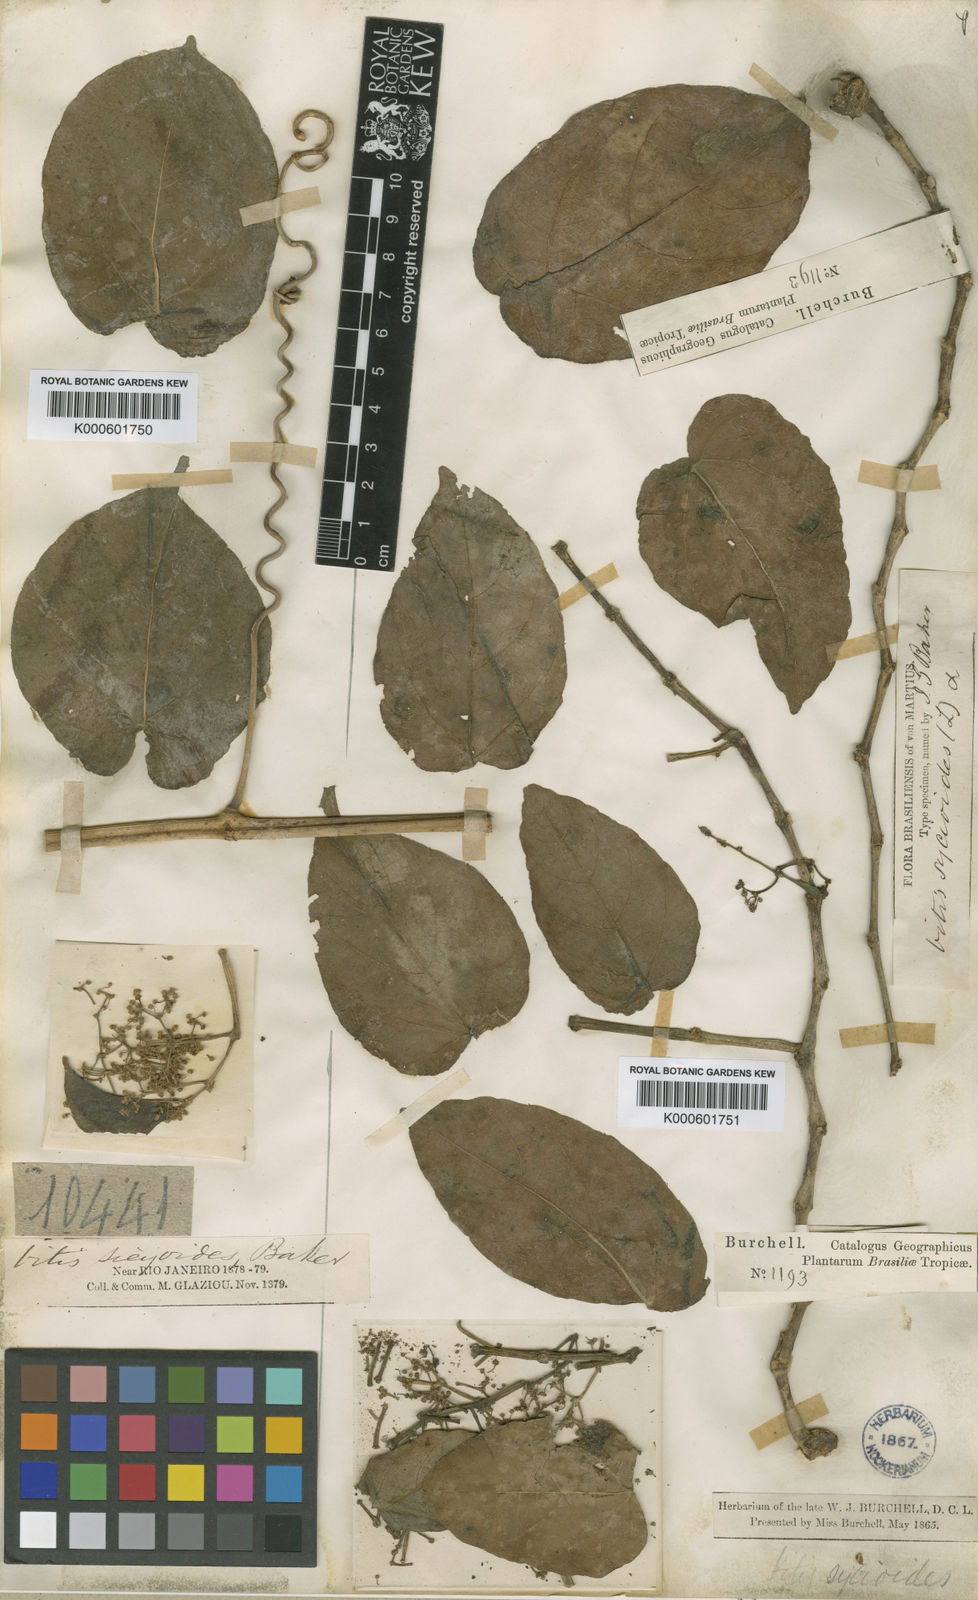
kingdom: Plantae
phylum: Tracheophyta
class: Magnoliopsida
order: Vitales
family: Vitaceae
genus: Cissus
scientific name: Cissus verticillata
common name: Princess vine
